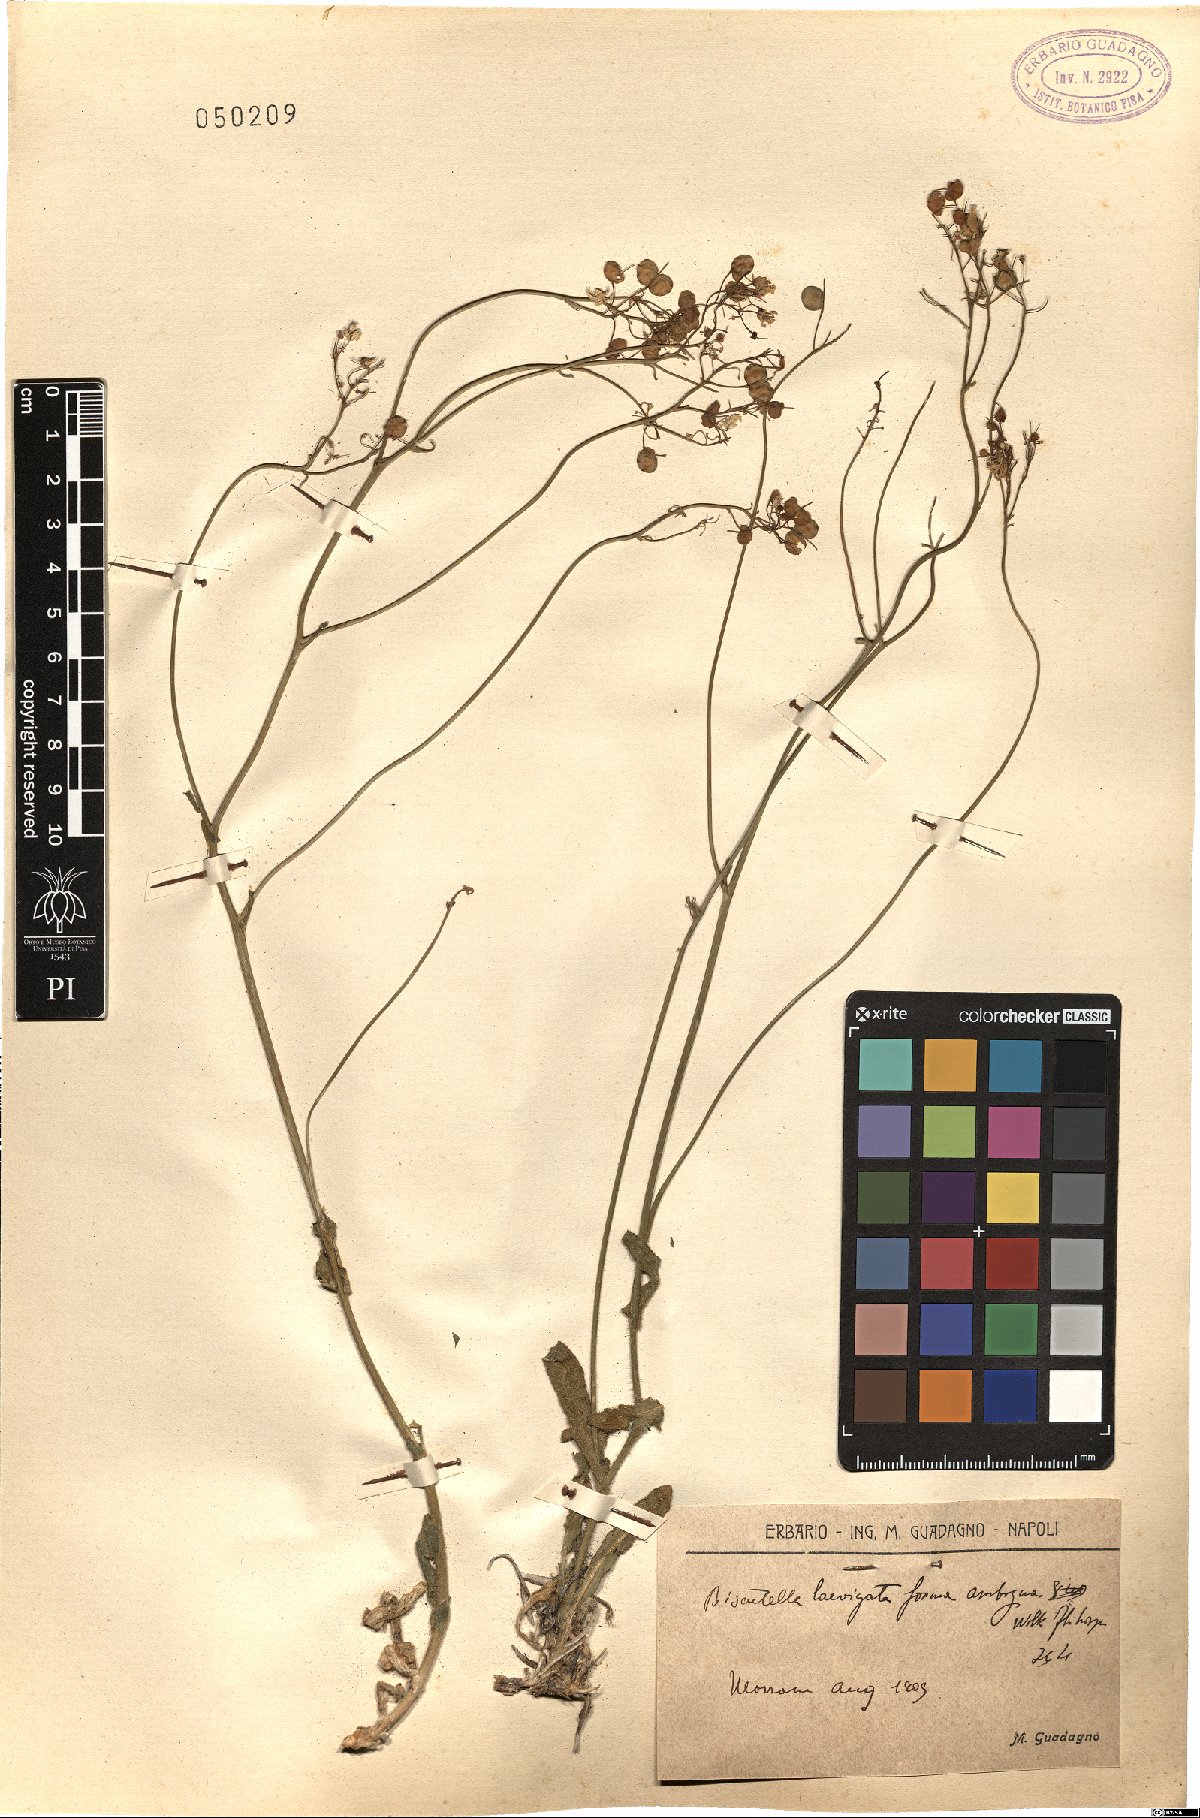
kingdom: Plantae
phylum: Tracheophyta
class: Magnoliopsida
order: Brassicales
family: Brassicaceae
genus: Biscutella
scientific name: Biscutella laevigata
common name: Buckler mustard
